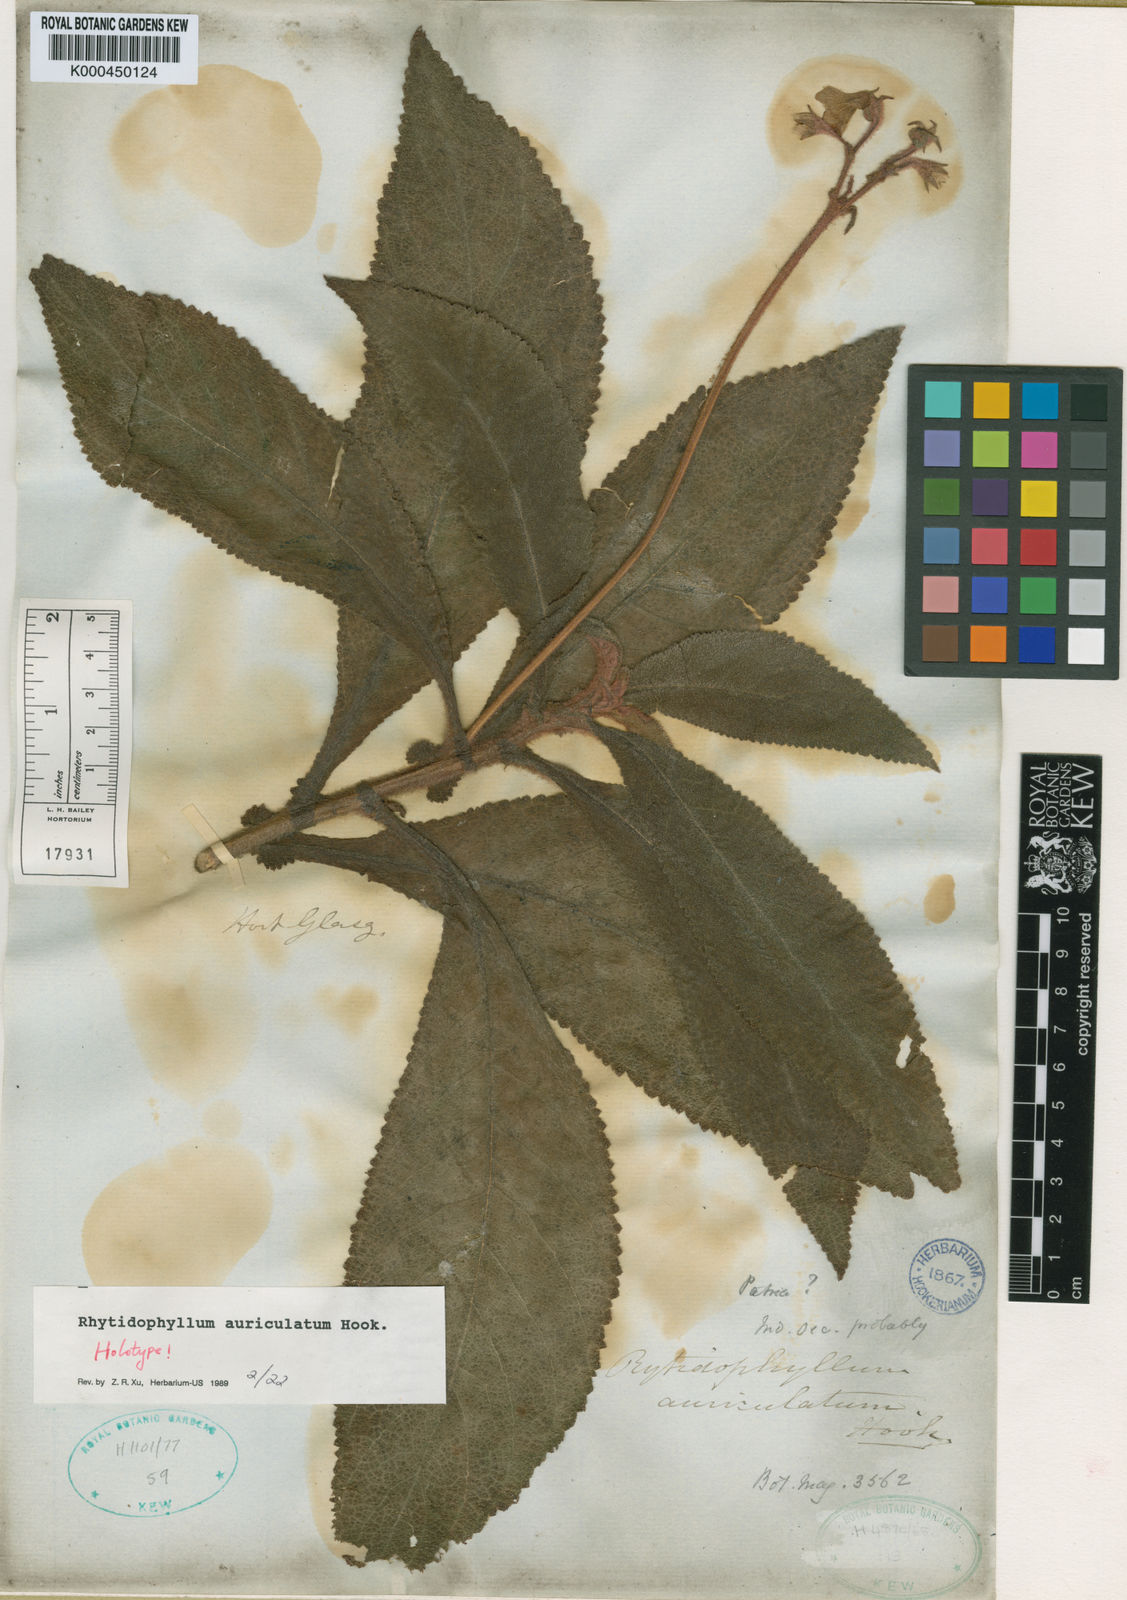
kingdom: Plantae
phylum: Tracheophyta
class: Magnoliopsida
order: Lamiales
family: Gesneriaceae
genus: Rhytidophyllum
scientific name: Rhytidophyllum auriculatum
